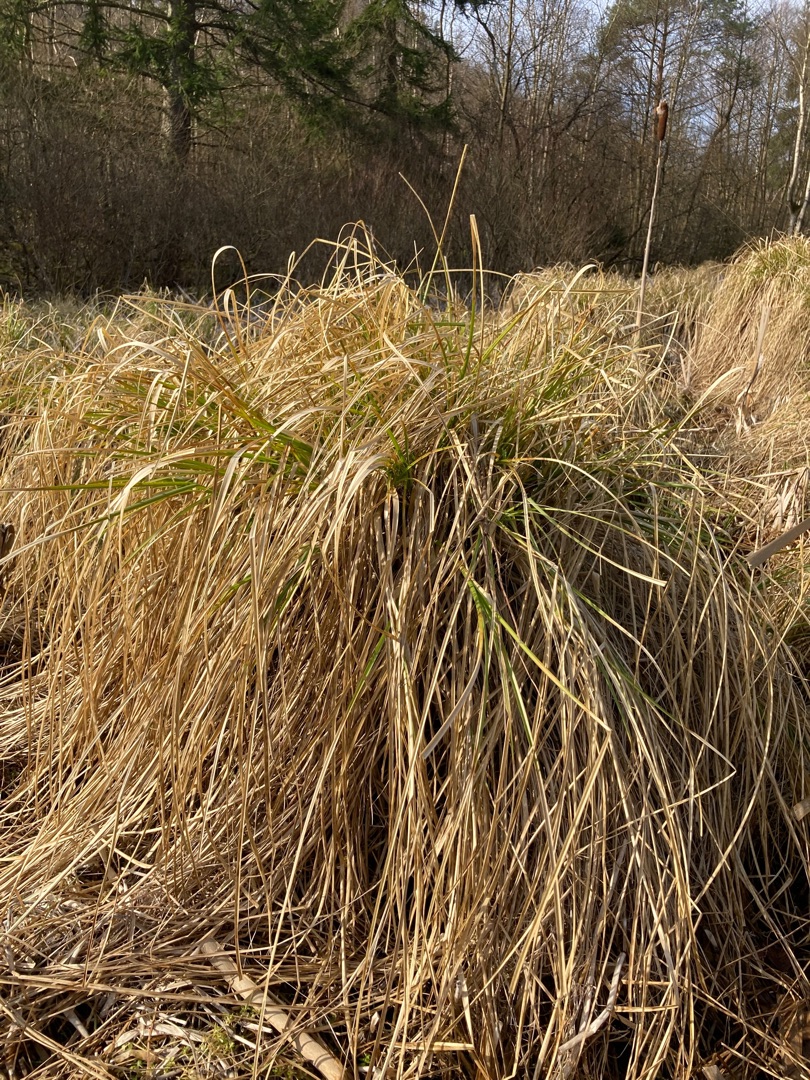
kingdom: Plantae
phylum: Tracheophyta
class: Liliopsida
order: Poales
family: Cyperaceae
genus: Carex
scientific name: Carex paniculata
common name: Top-star
